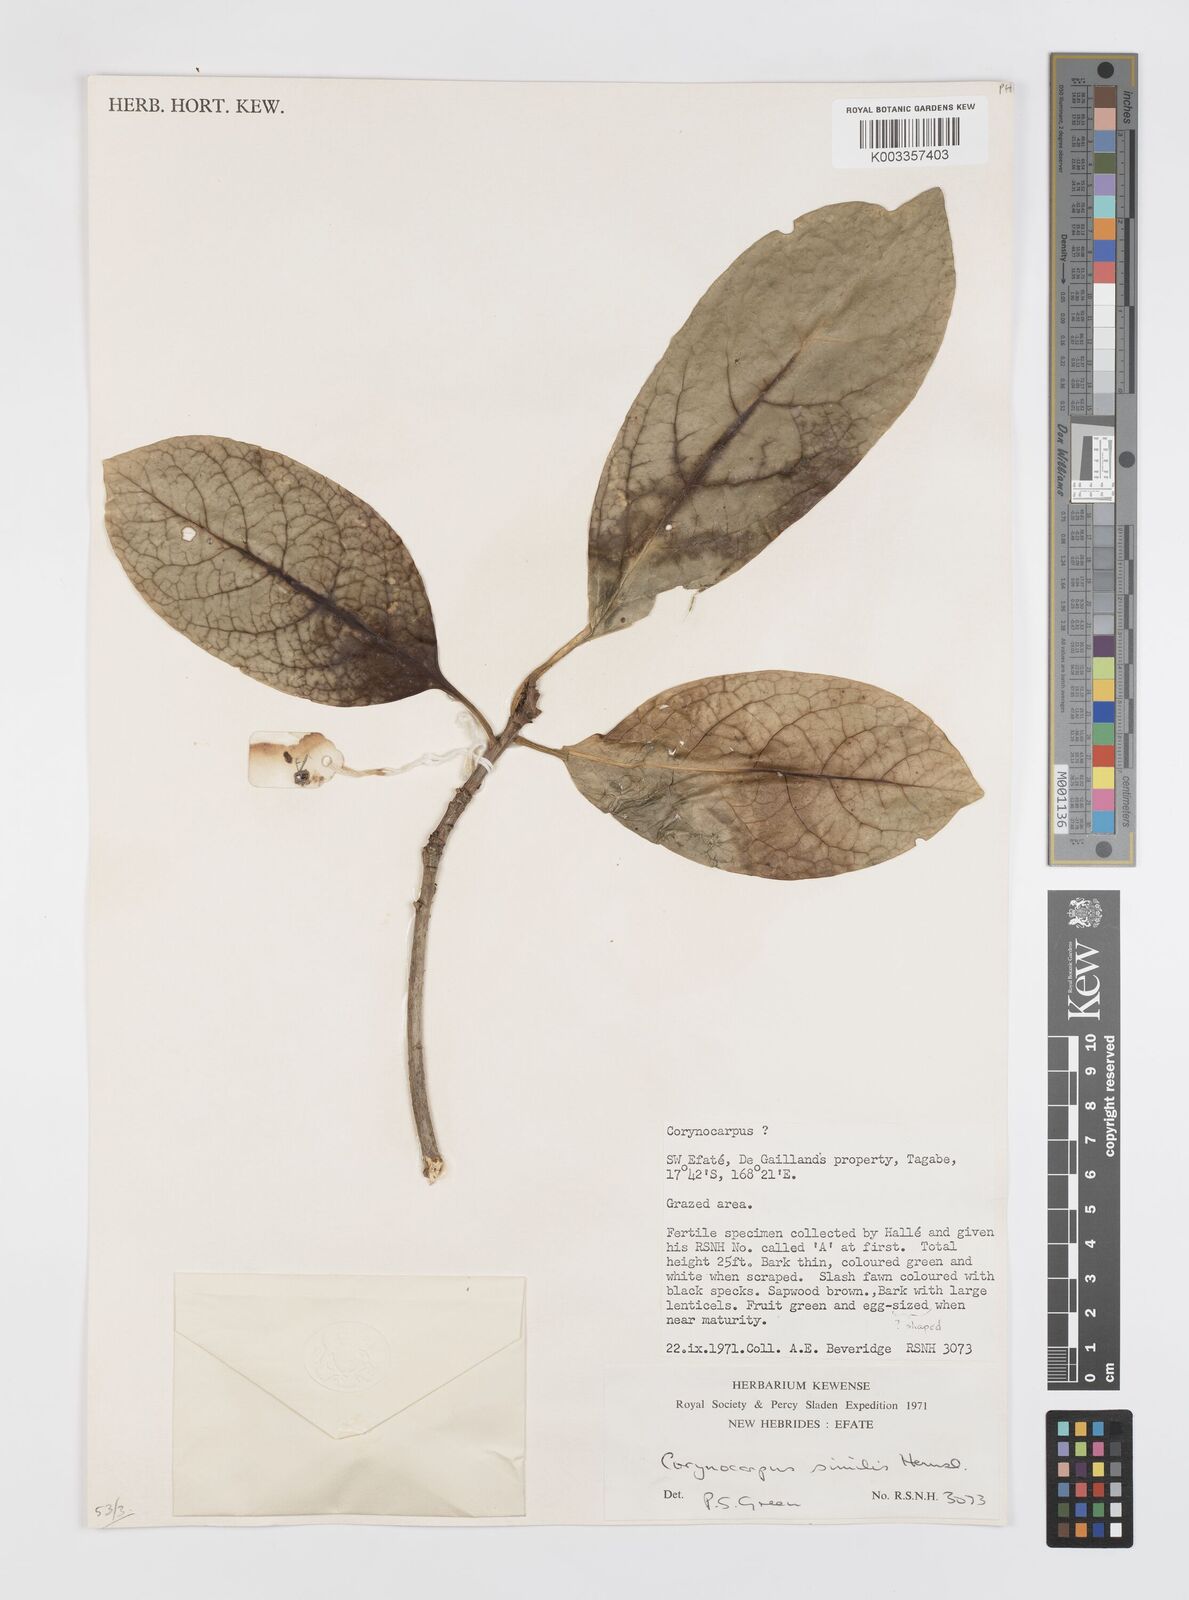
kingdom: Plantae
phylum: Tracheophyta
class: Magnoliopsida
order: Cucurbitales
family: Corynocarpaceae
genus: Corynocarpus
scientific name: Corynocarpus similis
